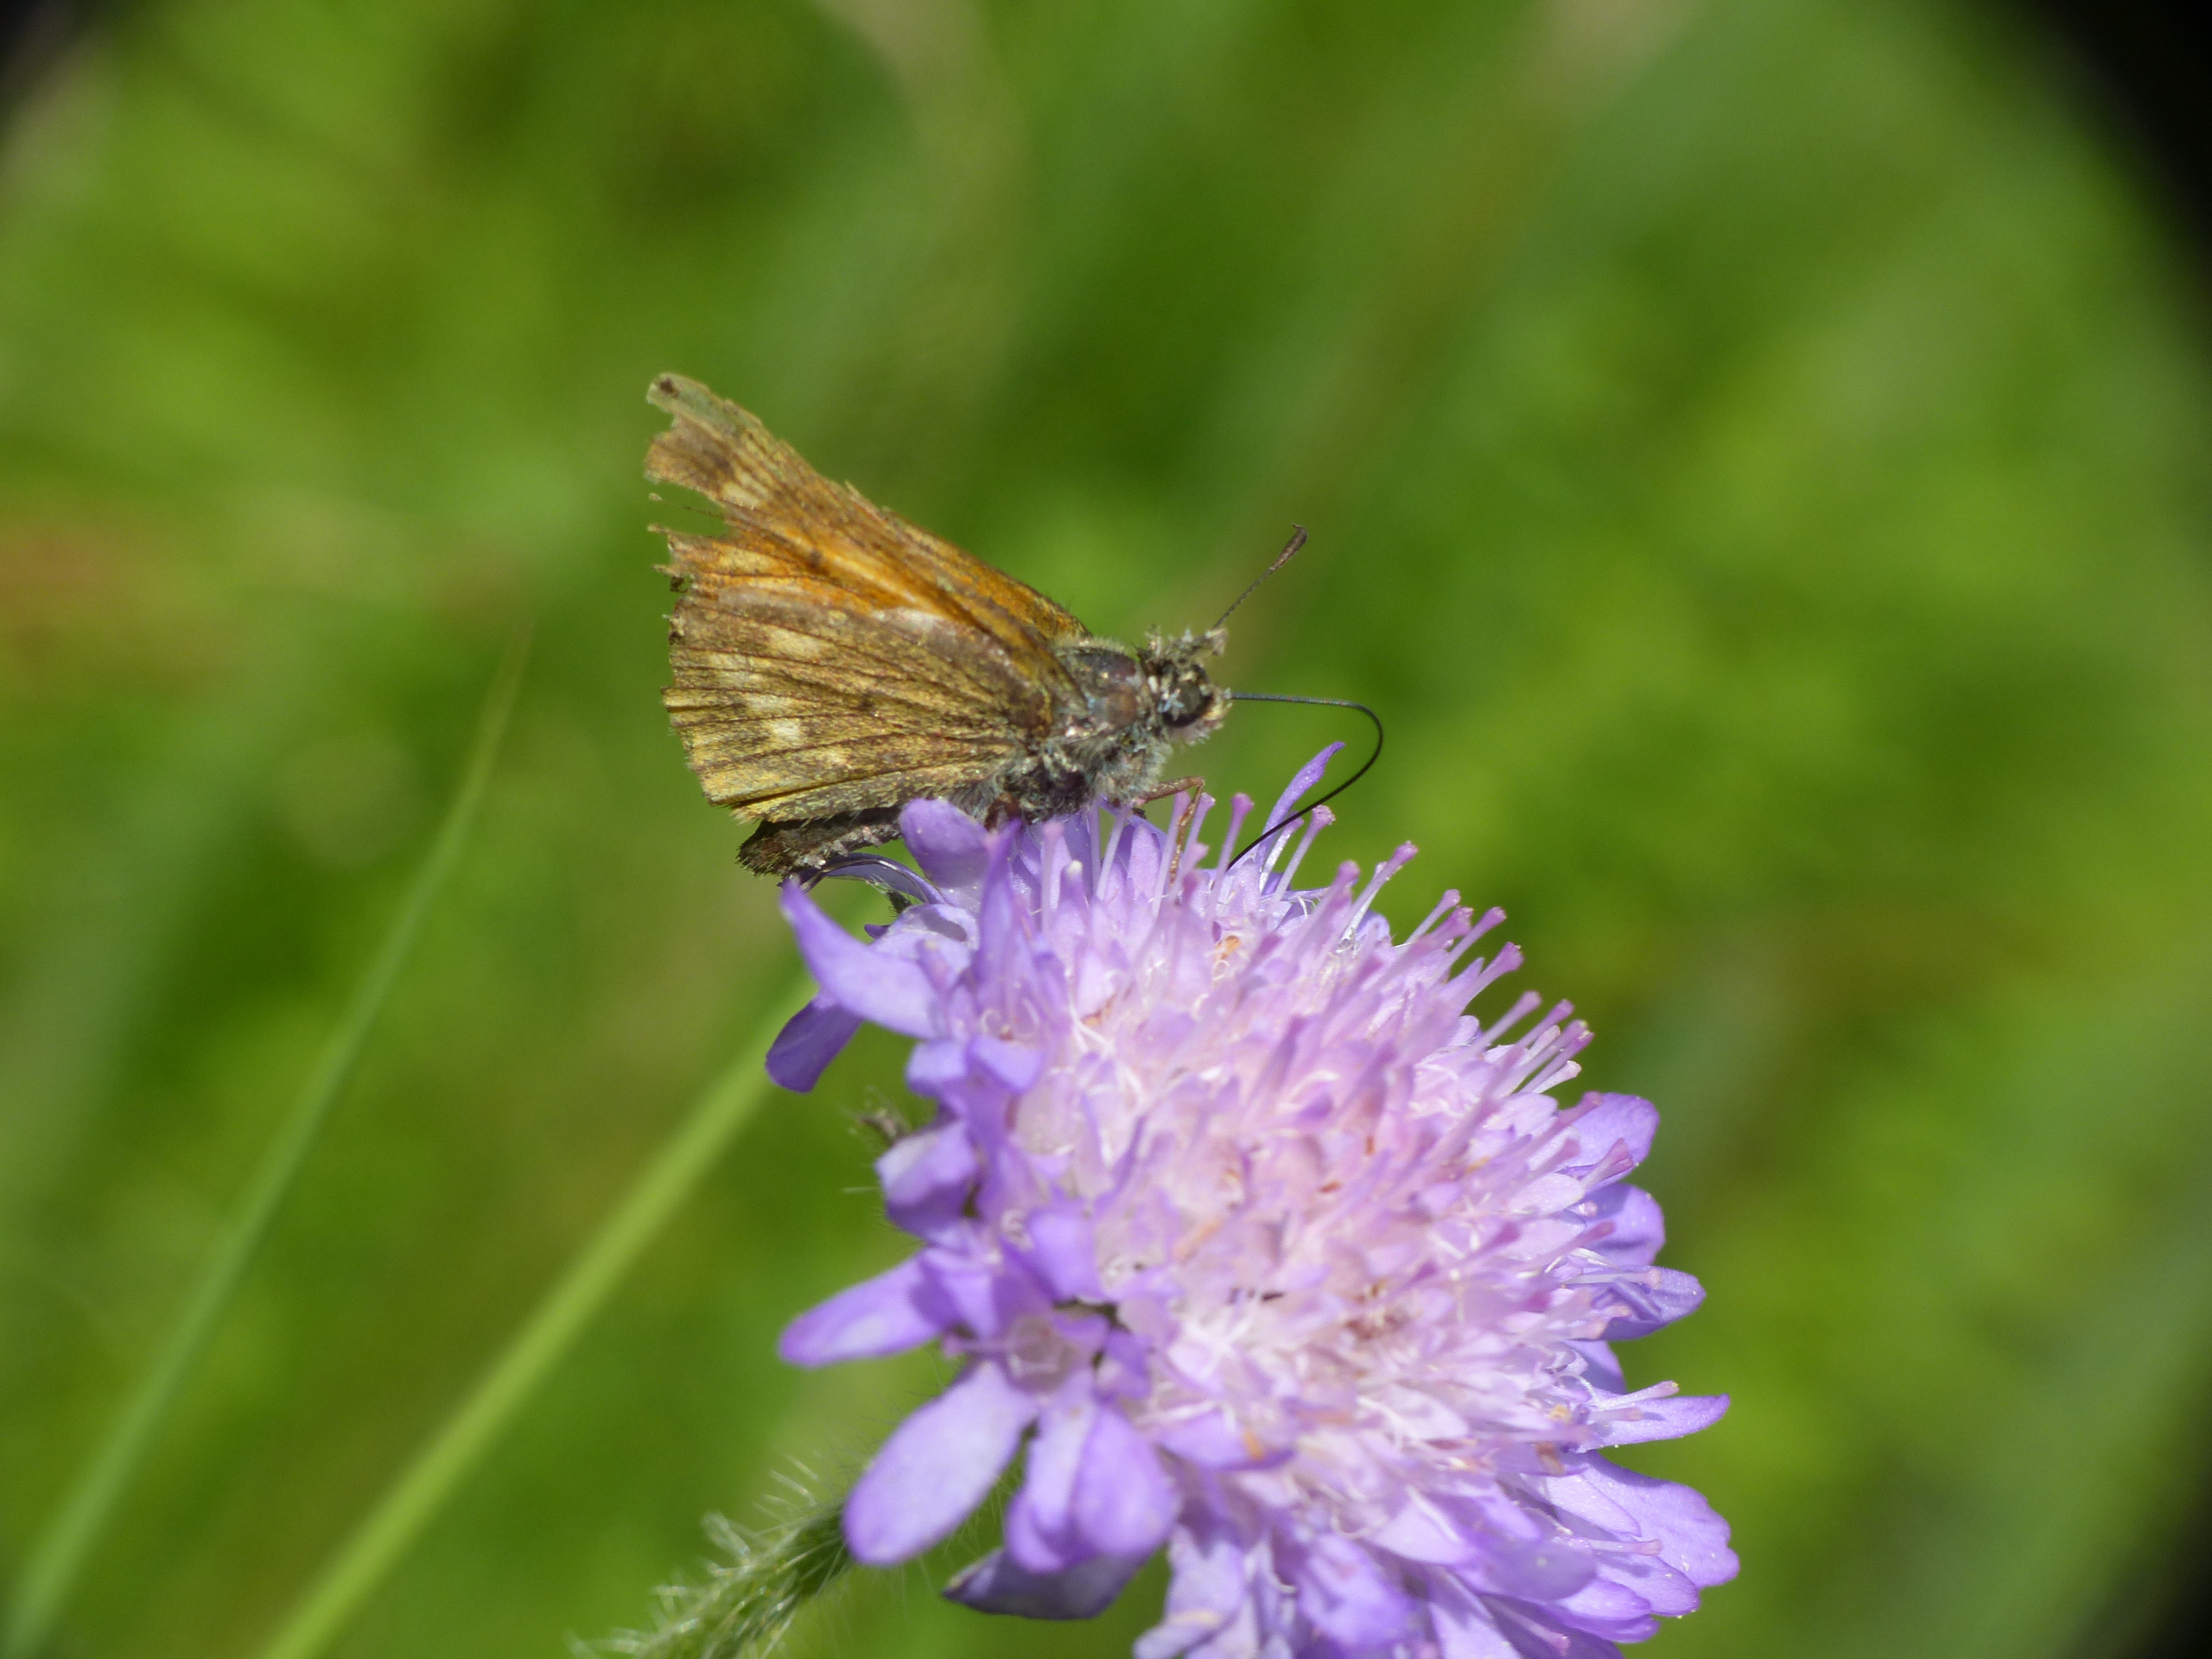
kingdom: Animalia
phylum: Arthropoda
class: Insecta
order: Lepidoptera
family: Hesperiidae
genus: Ochlodes
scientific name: Ochlodes venata
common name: Stor bredpande
